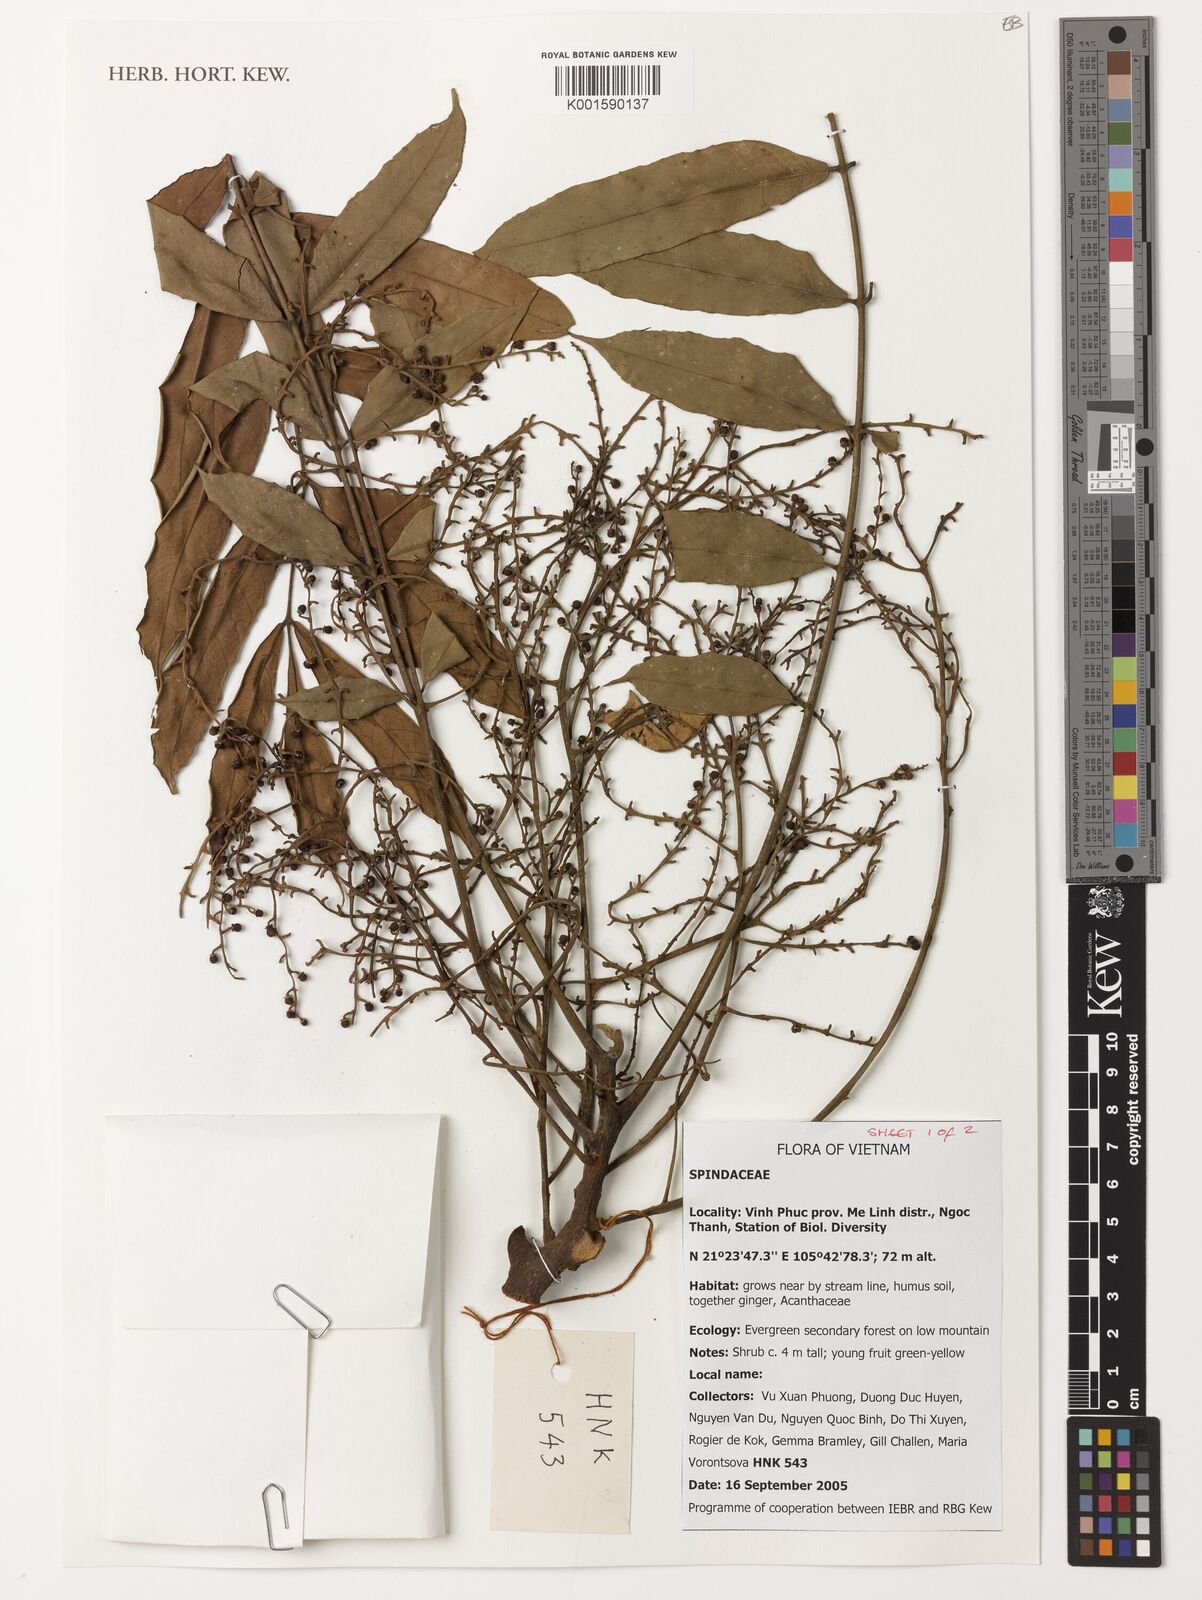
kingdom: Plantae
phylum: Tracheophyta
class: Magnoliopsida
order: Sapindales
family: Sapindaceae
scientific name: Sapindaceae
